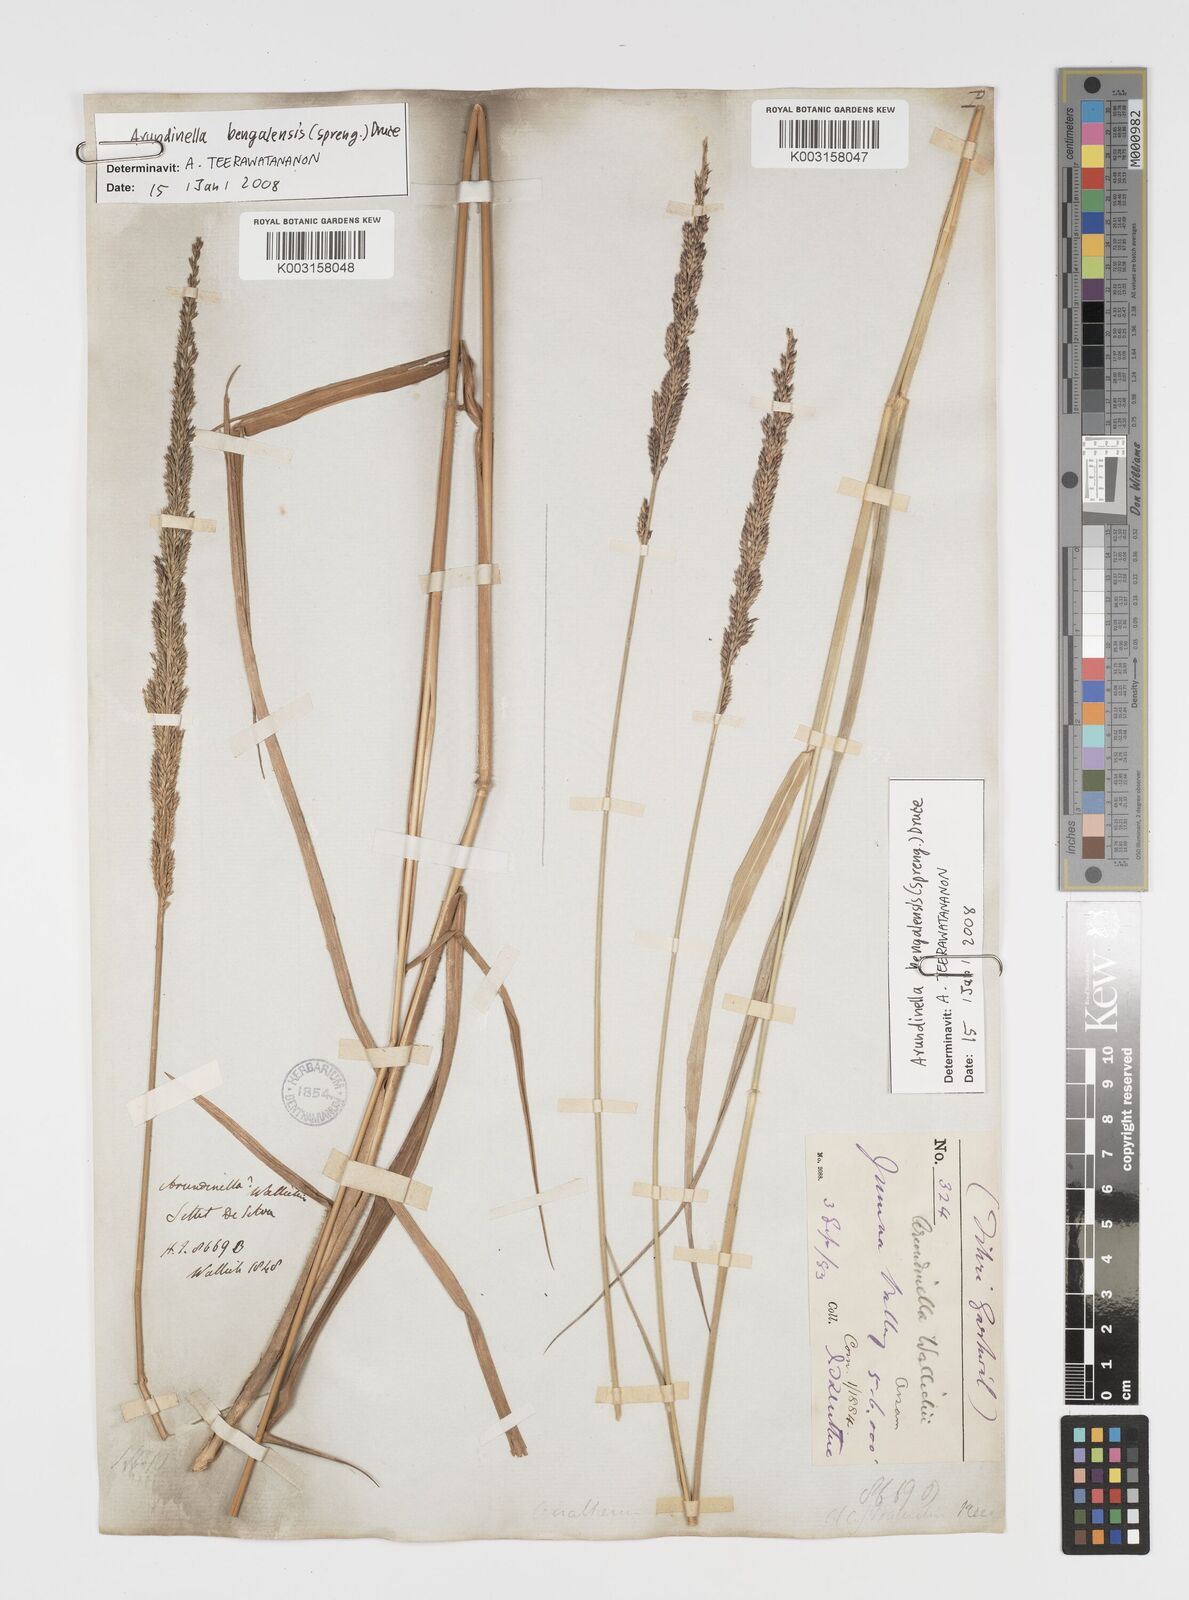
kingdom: Plantae
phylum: Tracheophyta
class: Liliopsida
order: Poales
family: Poaceae
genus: Arundinella
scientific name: Arundinella bengalensis
